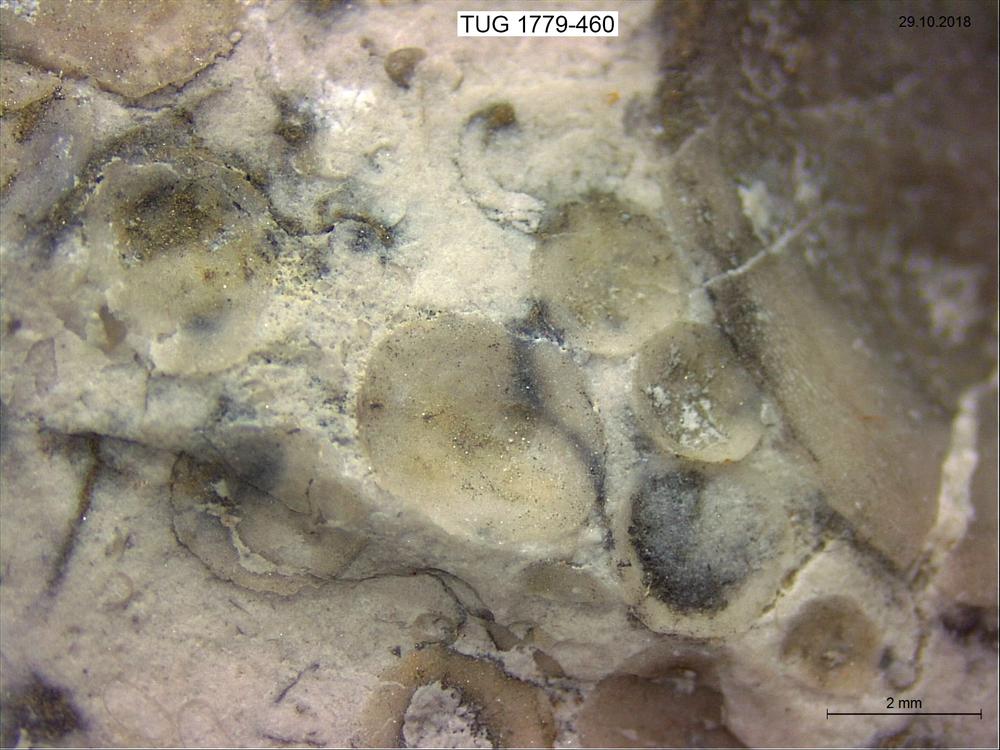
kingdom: Animalia
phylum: Brachiopoda
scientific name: Brachiopoda
